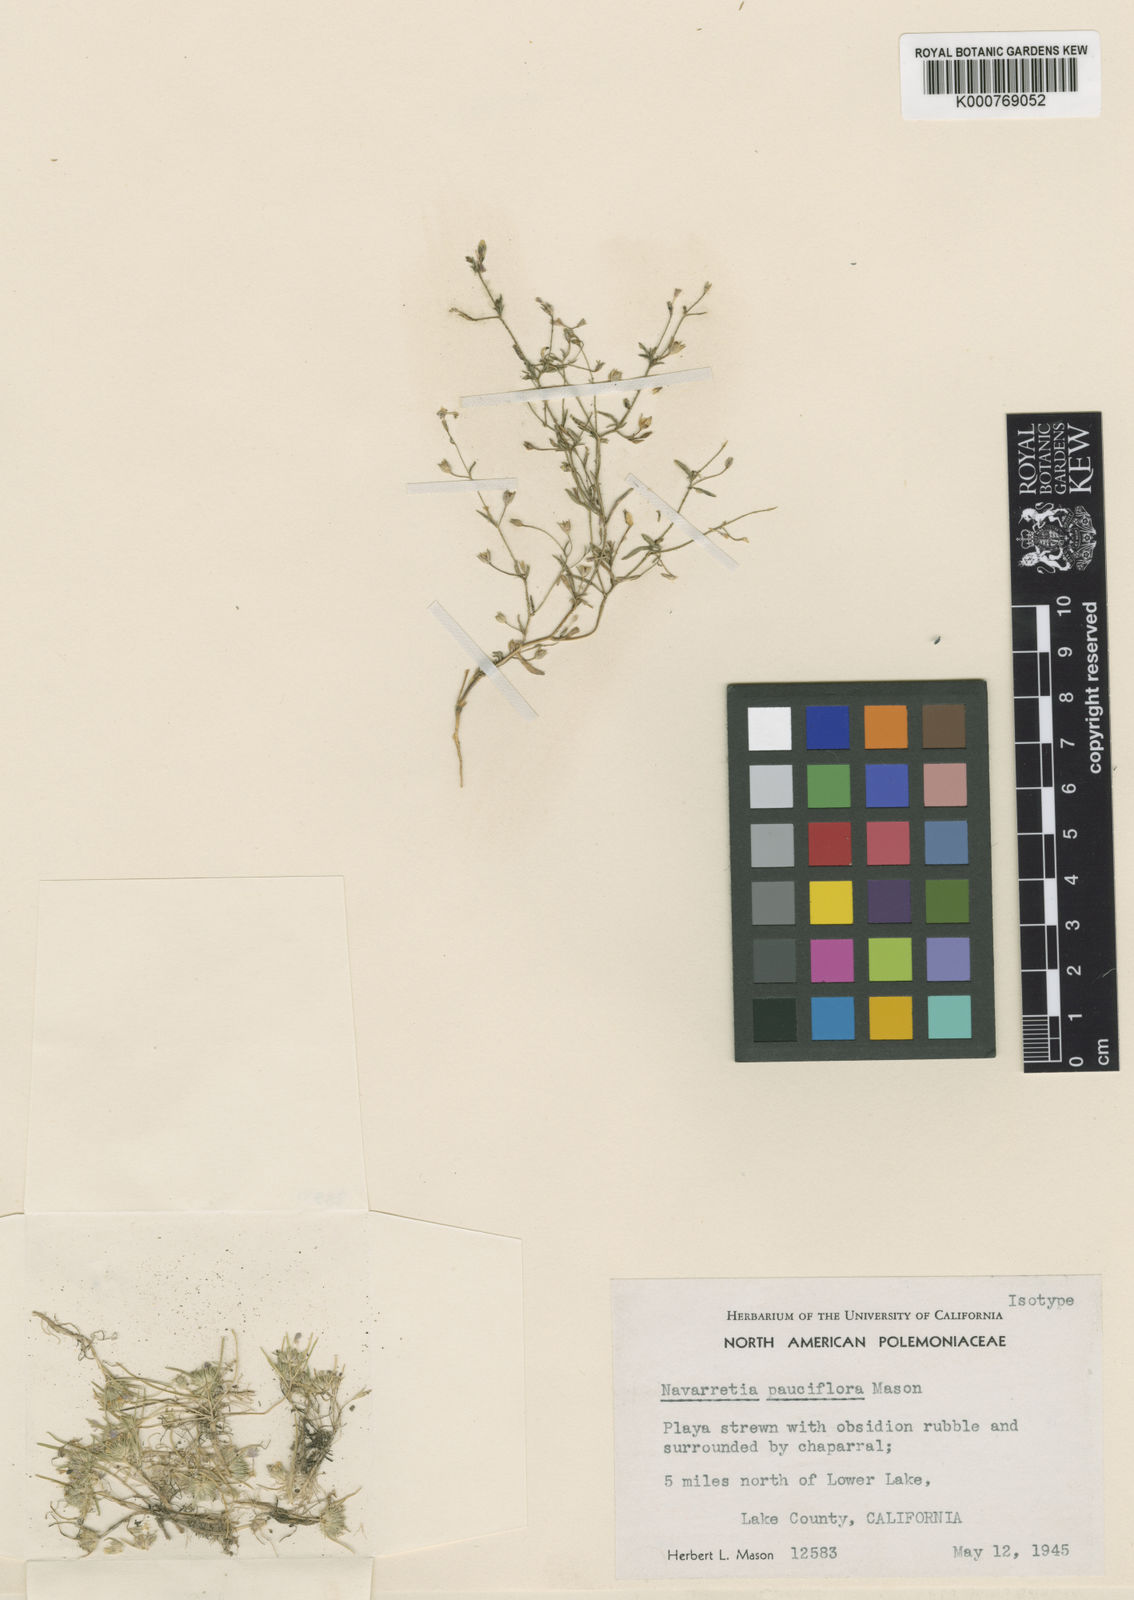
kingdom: Plantae
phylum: Tracheophyta
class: Magnoliopsida
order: Ericales
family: Polemoniaceae
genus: Navarretia
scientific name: Navarretia leucocephala
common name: White-flowered navarretia
